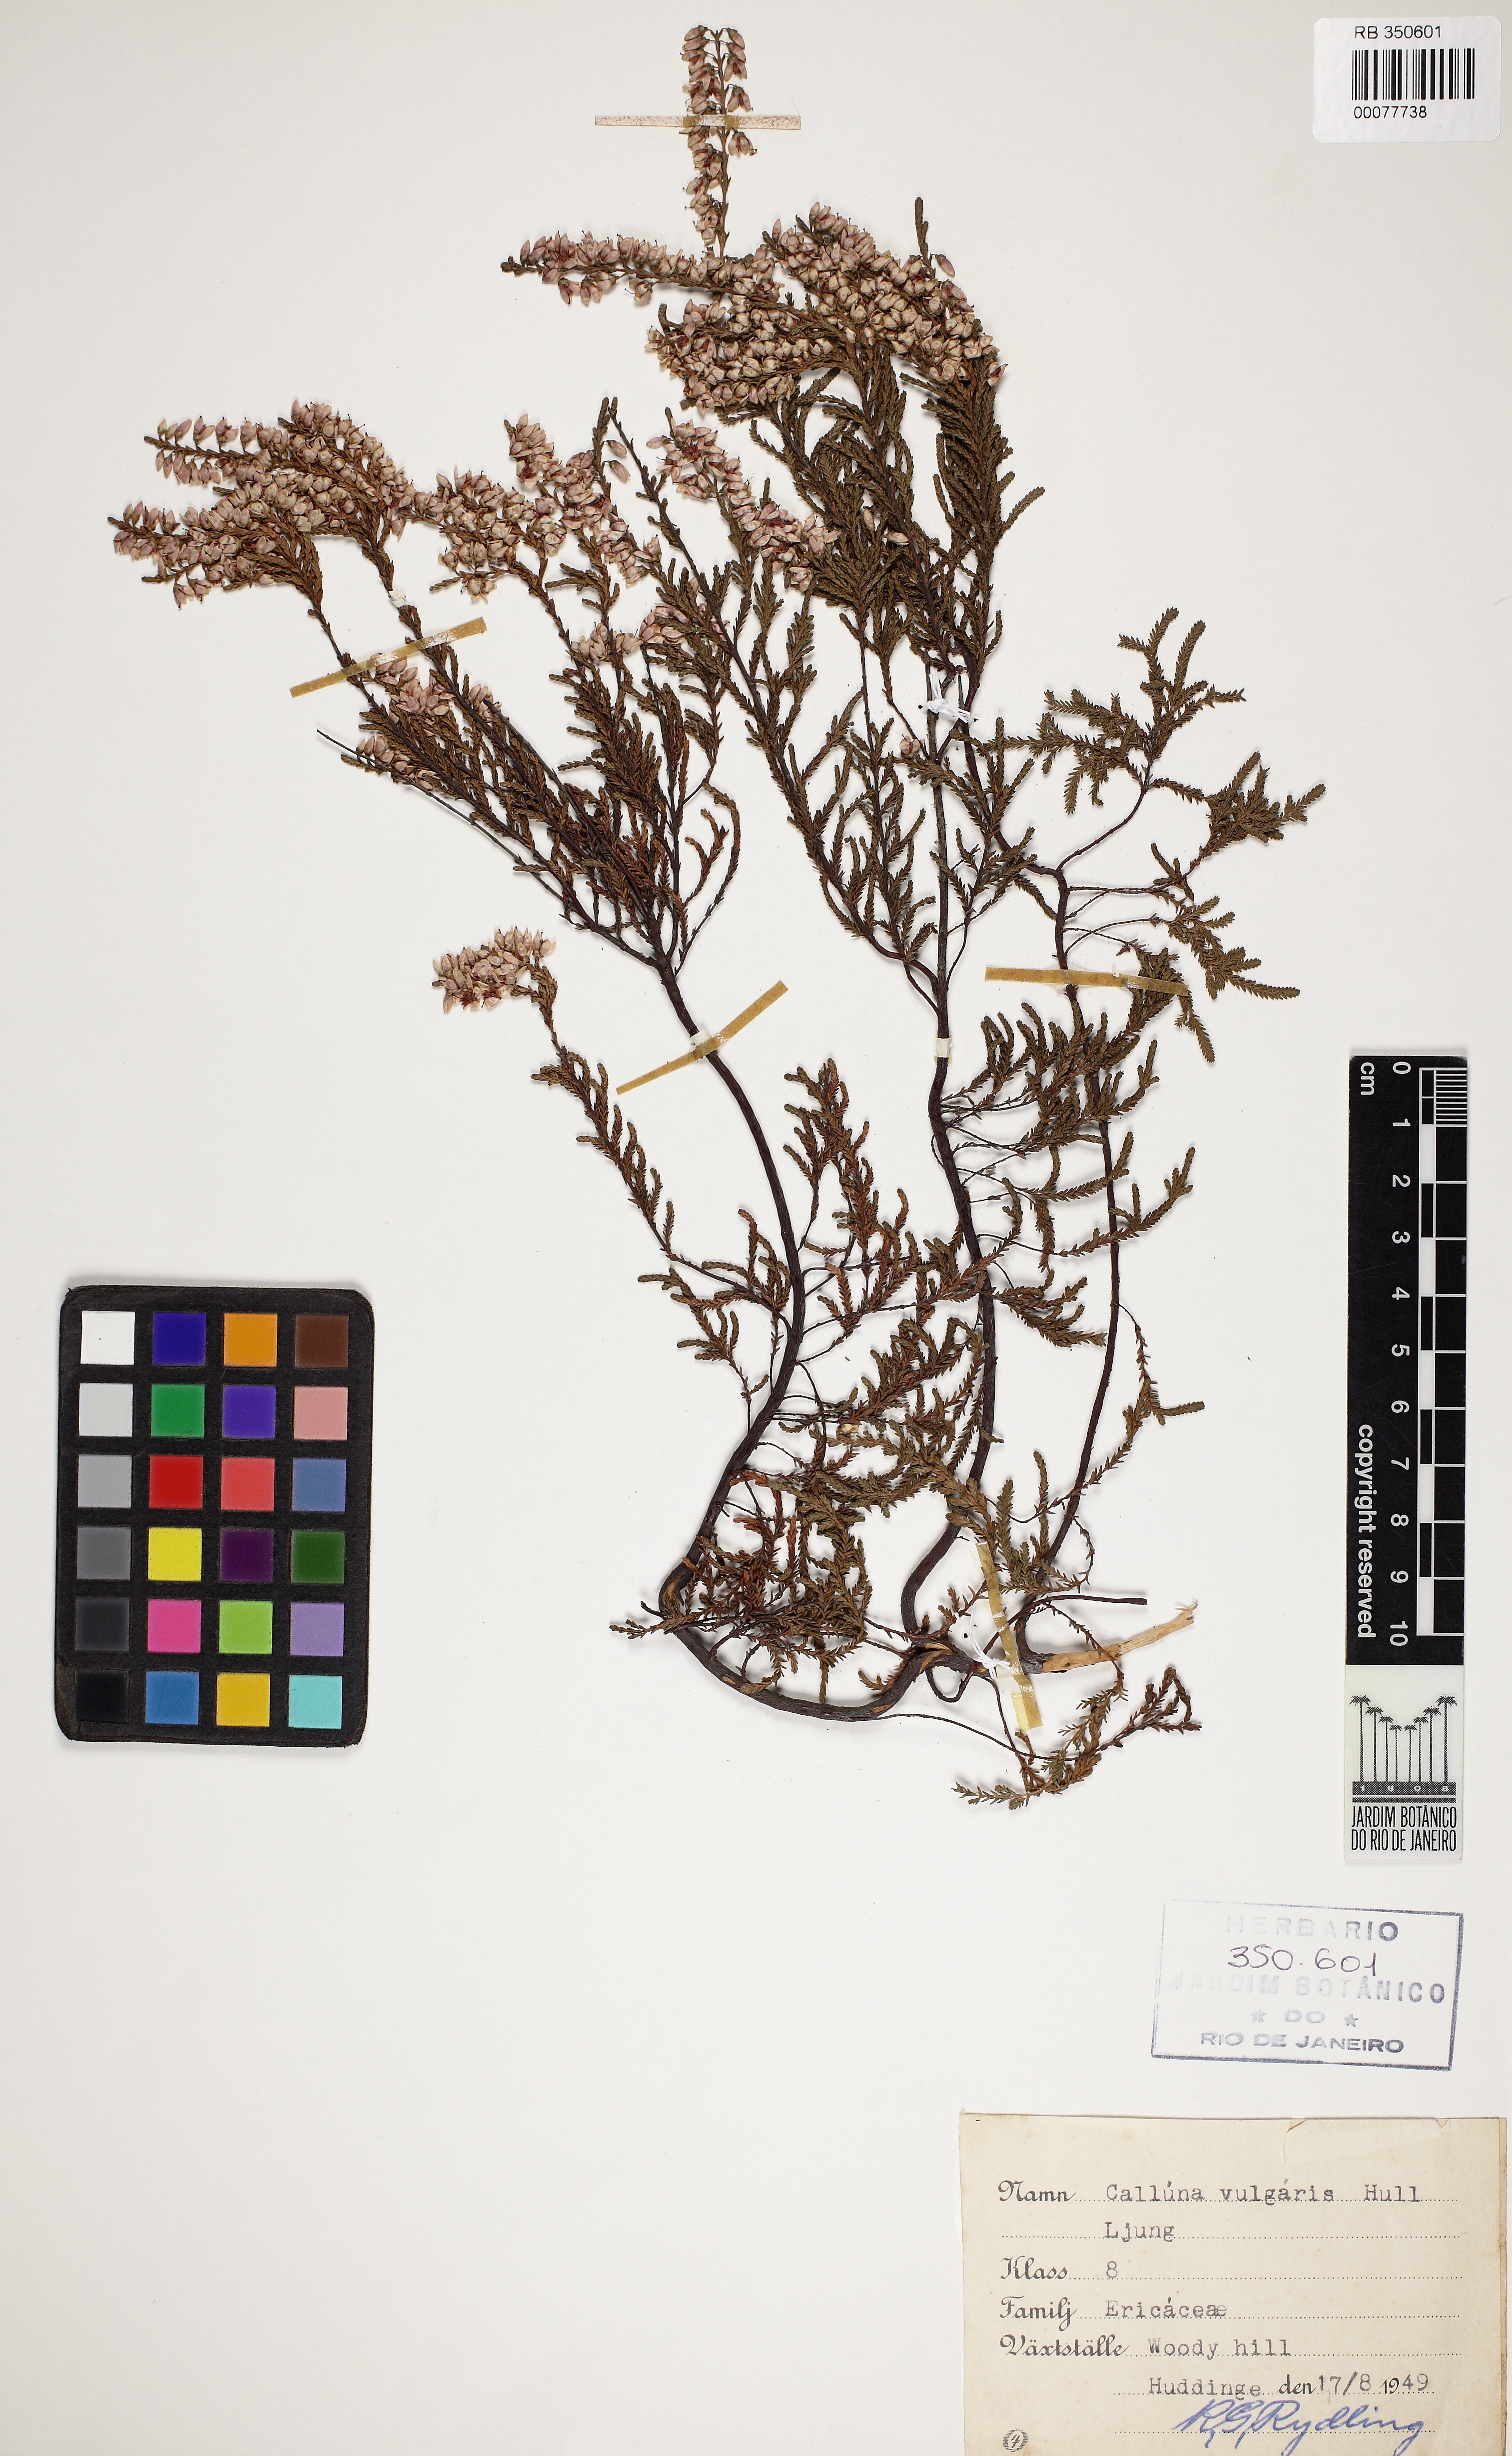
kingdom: Plantae
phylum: Tracheophyta
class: Magnoliopsida
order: Ericales
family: Ericaceae
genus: Calluna
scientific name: Calluna vulgaris
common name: Heather
